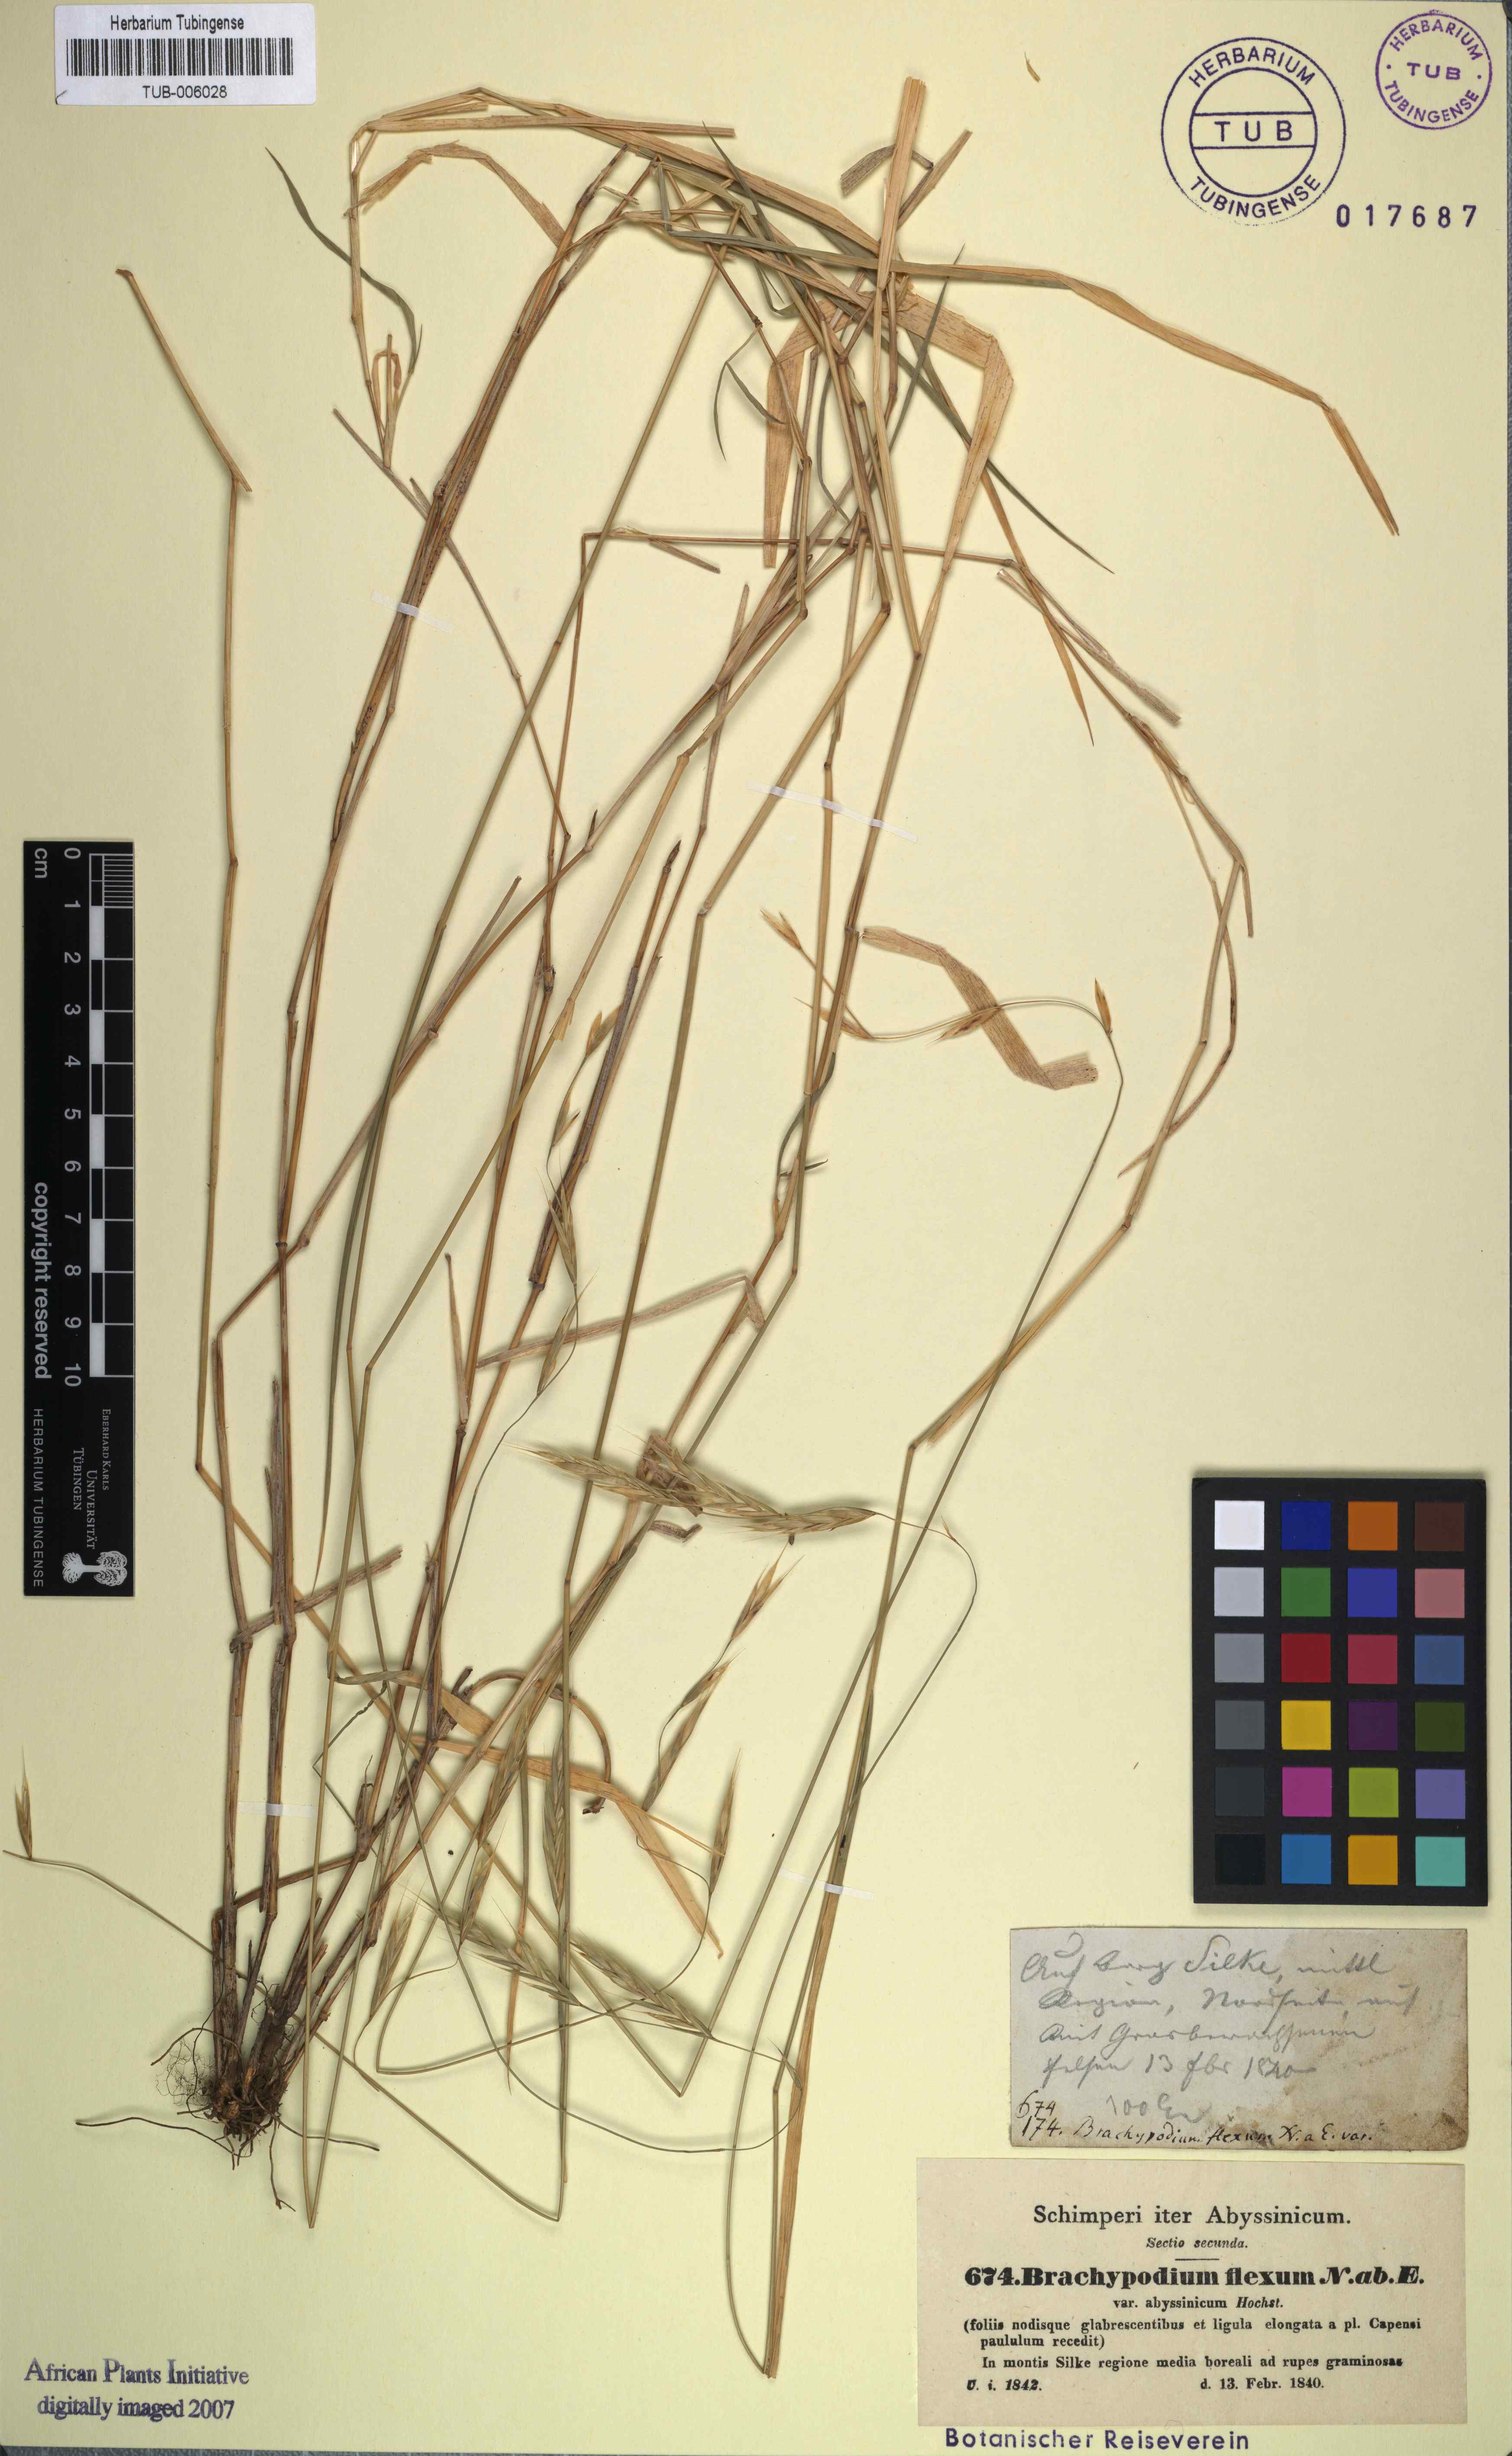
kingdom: Plantae
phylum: Tracheophyta
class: Liliopsida
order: Poales
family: Poaceae
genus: Brachypodium
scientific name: Brachypodium flexum
